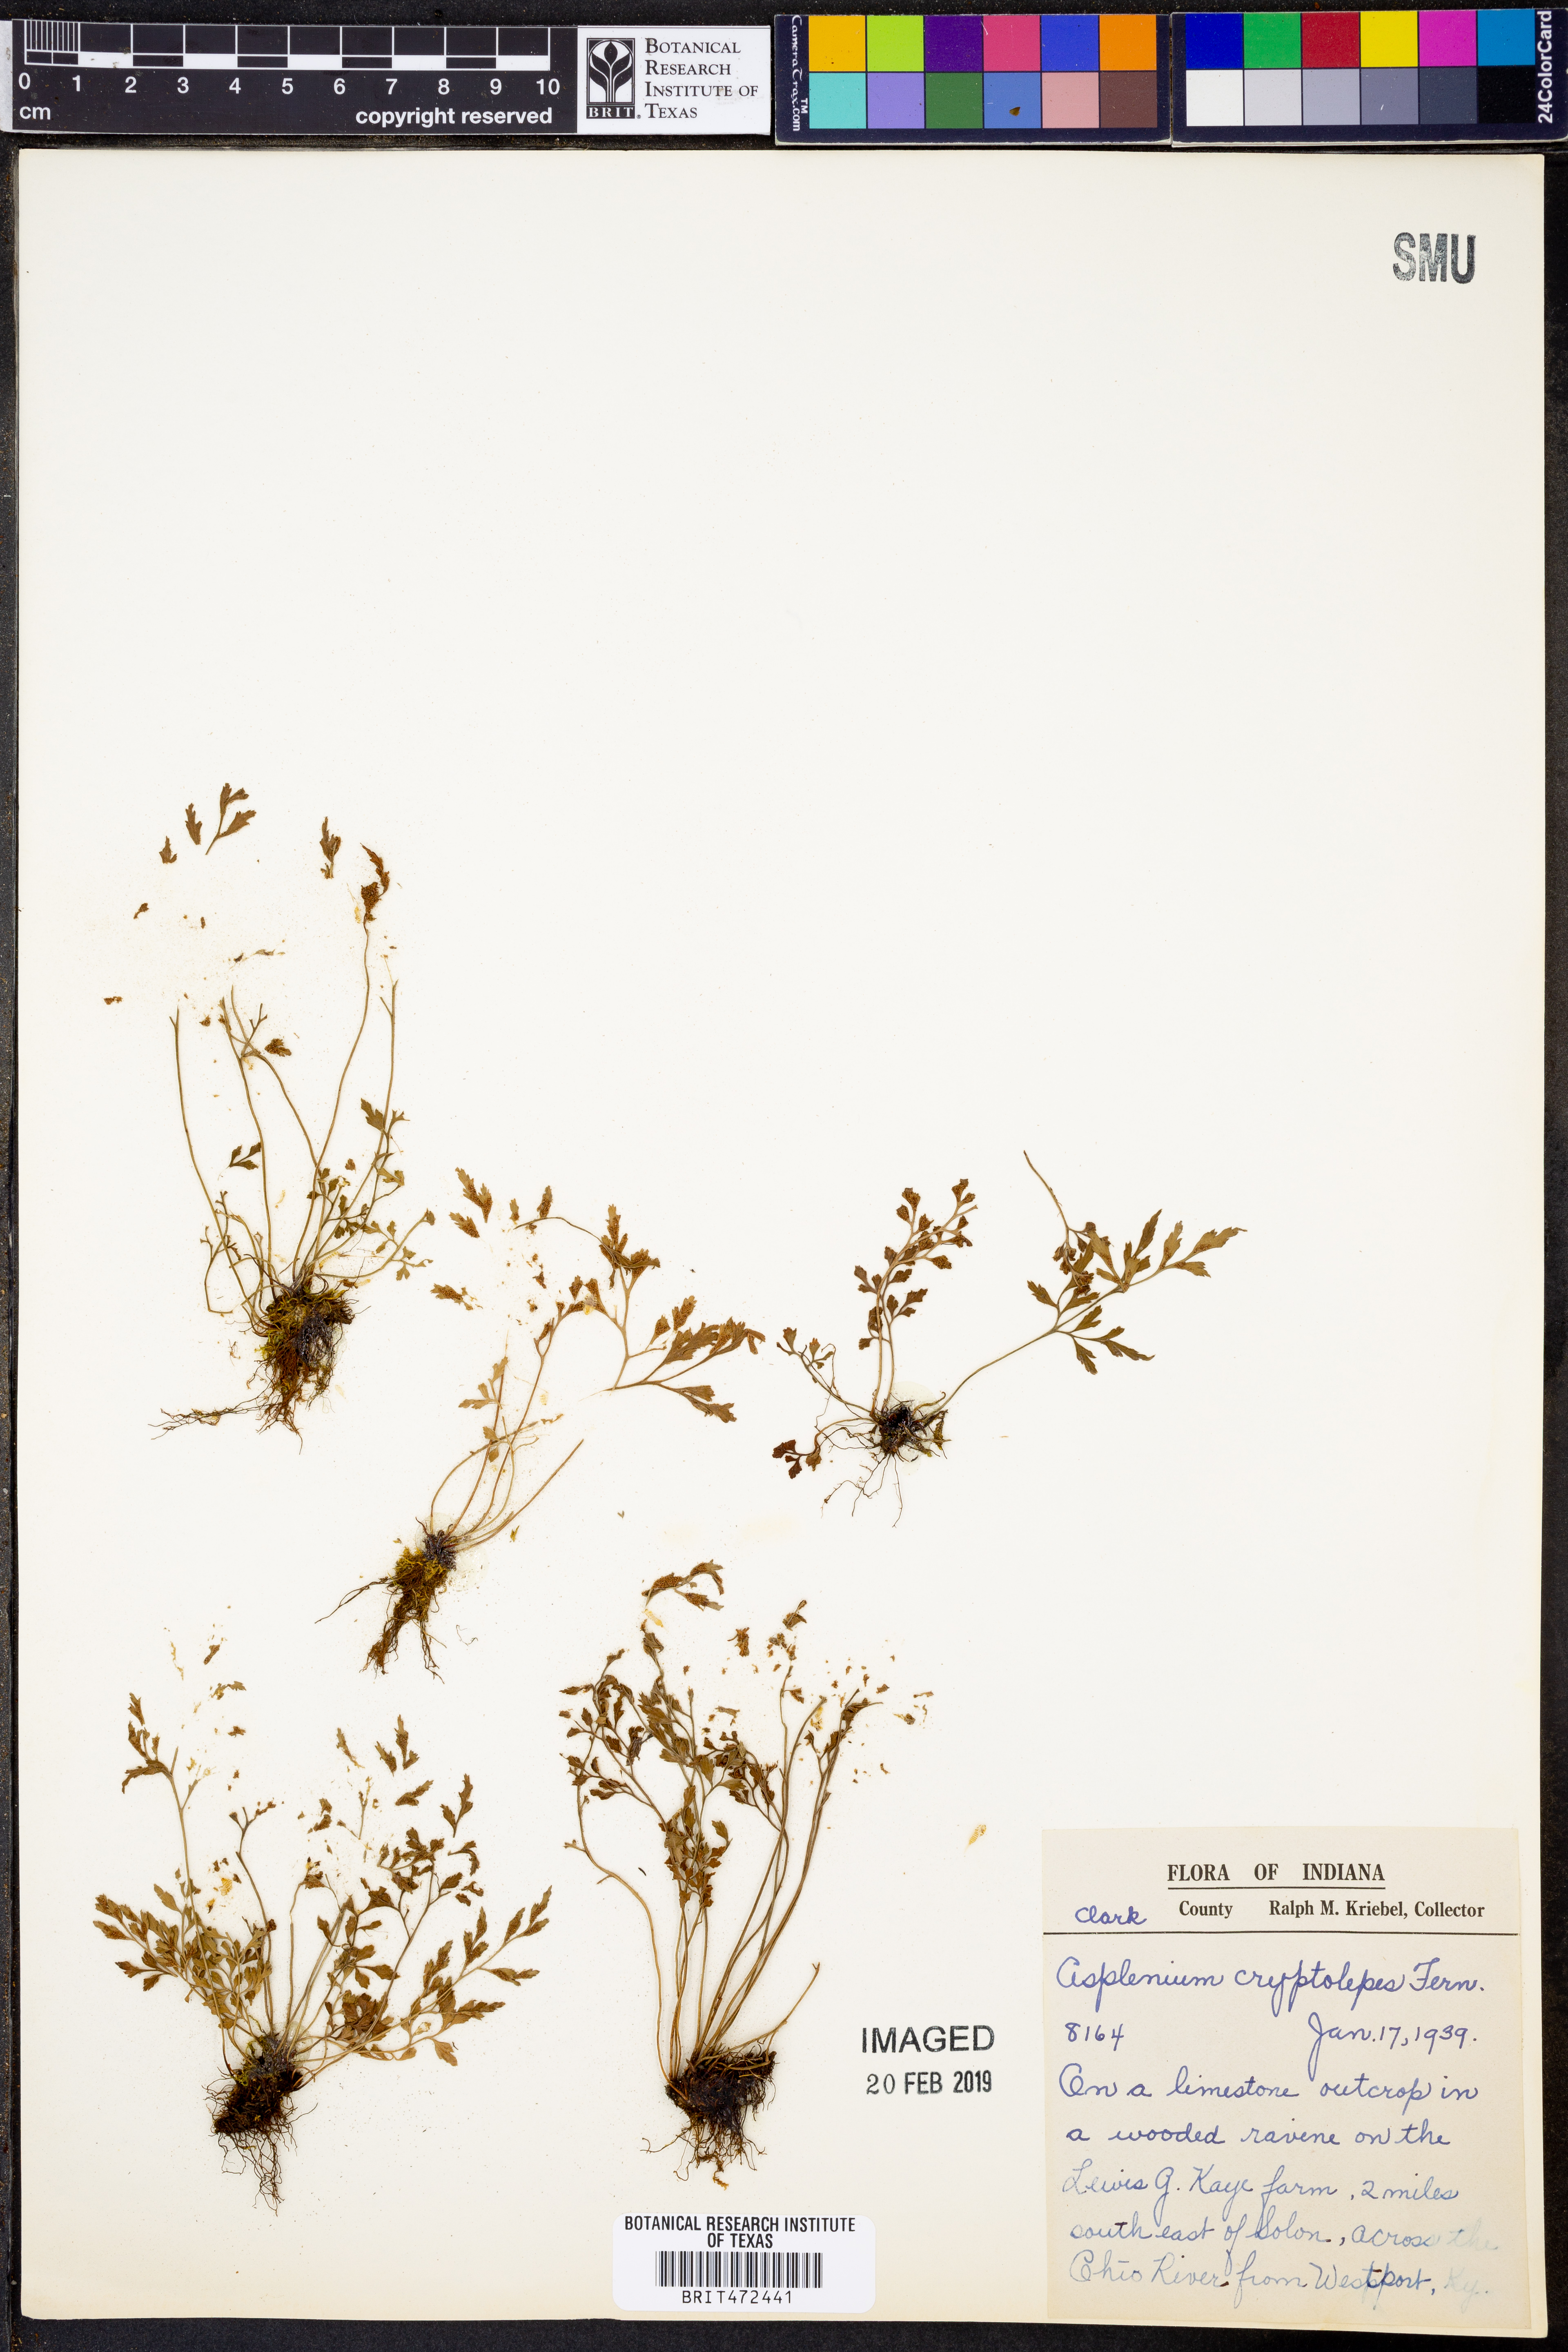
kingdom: Plantae
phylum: Tracheophyta
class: Polypodiopsida
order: Polypodiales
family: Aspleniaceae
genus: Asplenium
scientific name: Asplenium ruta-muraria
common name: Wall-rue
